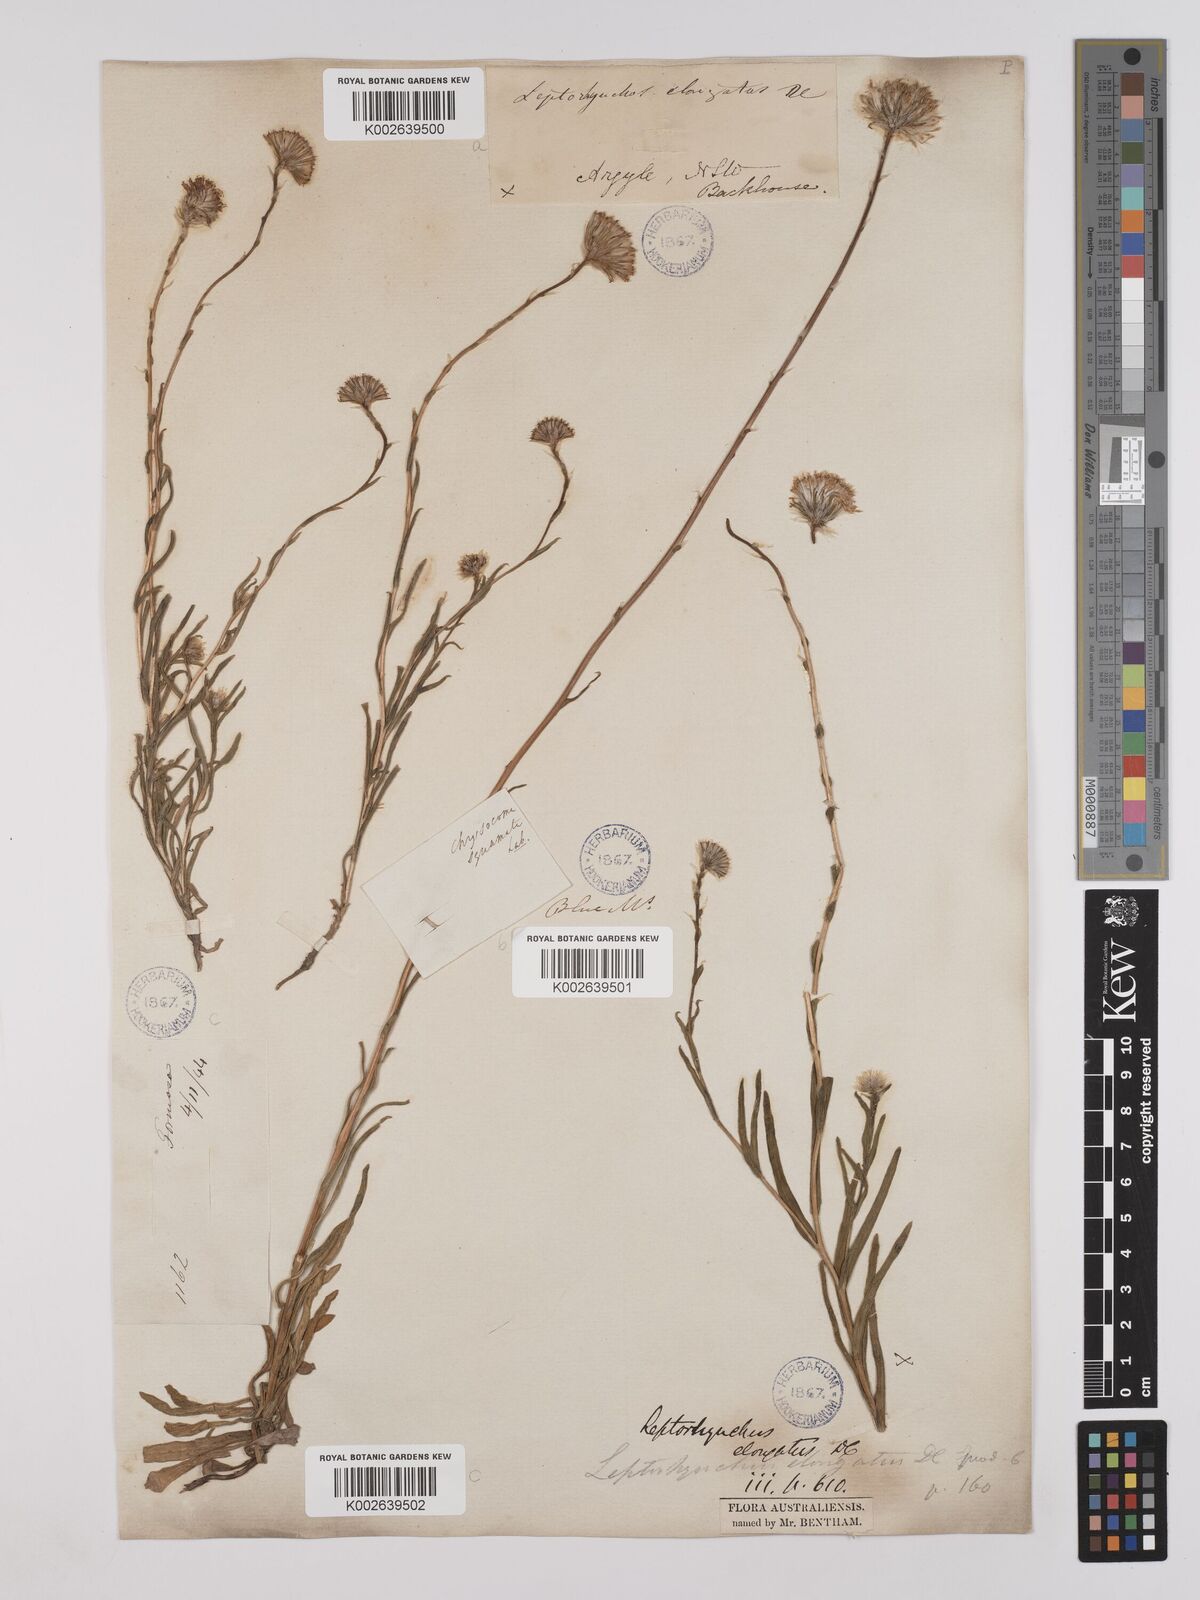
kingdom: Plantae
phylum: Tracheophyta
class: Magnoliopsida
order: Asterales
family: Asteraceae
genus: Leptorhynchos
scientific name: Leptorhynchos elongatus
